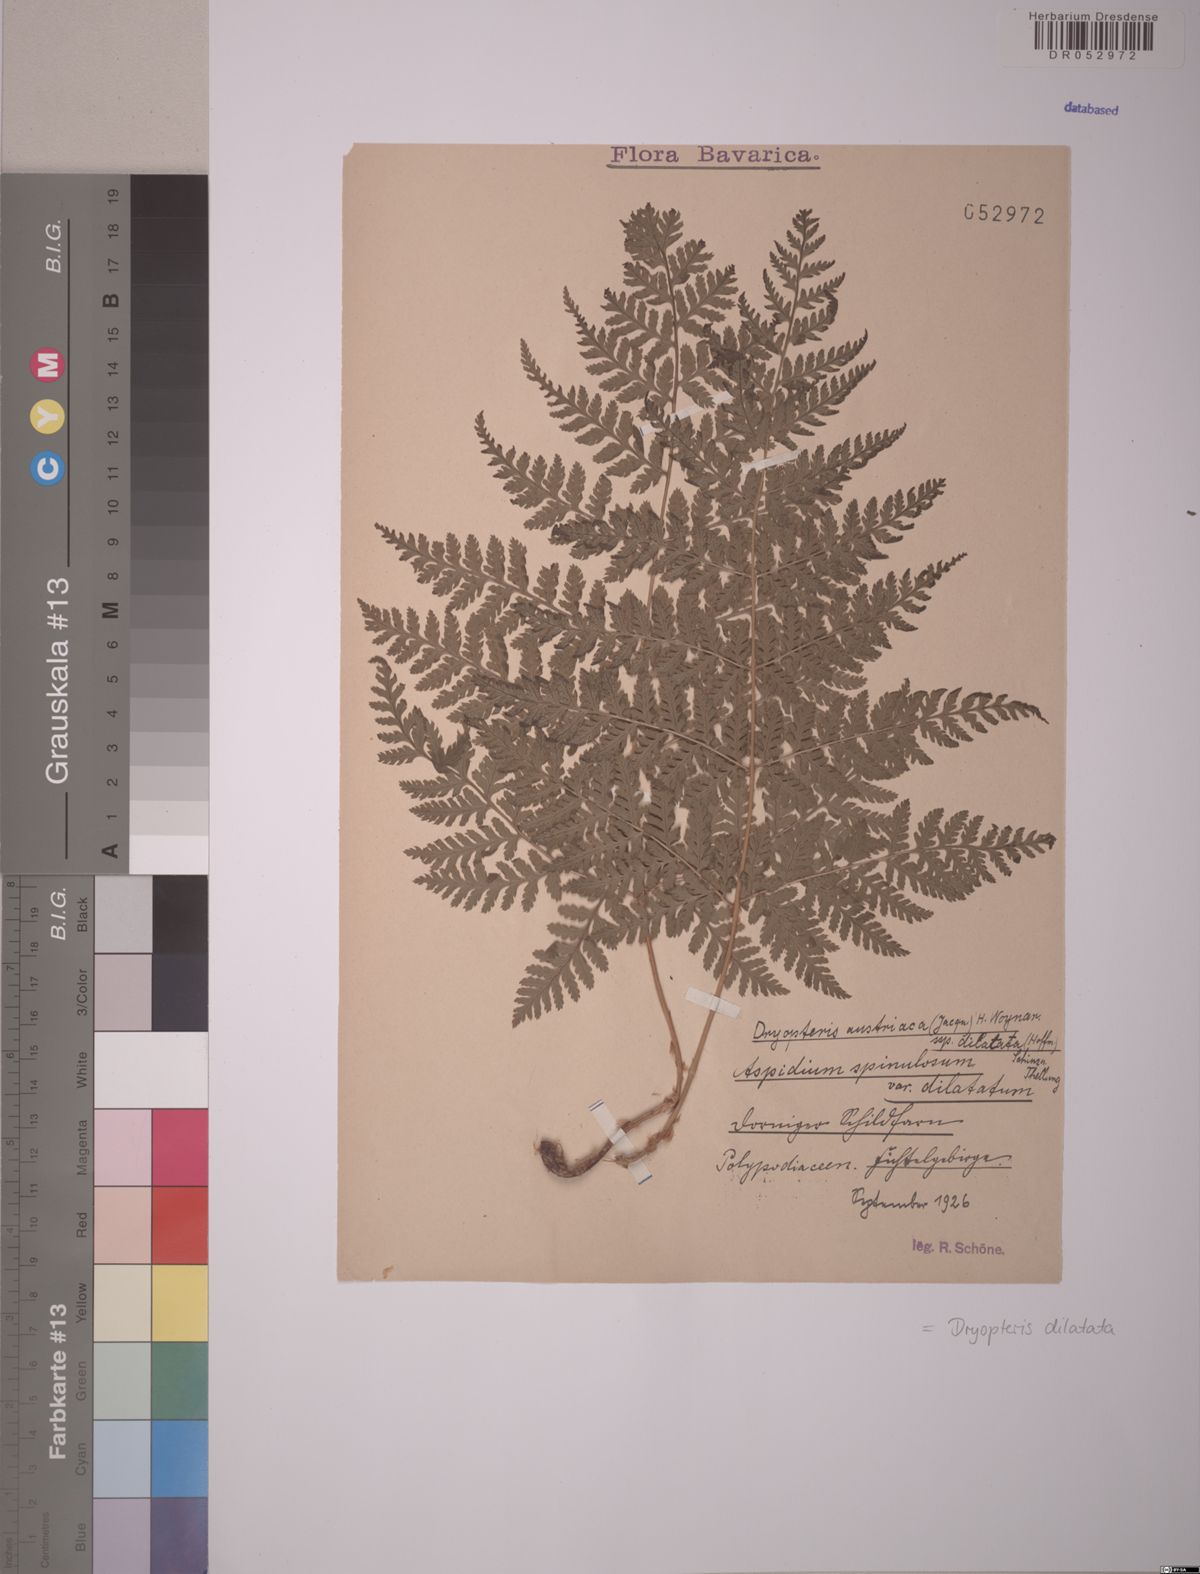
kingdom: Plantae
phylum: Tracheophyta
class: Polypodiopsida
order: Polypodiales
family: Dryopteridaceae
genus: Dryopteris
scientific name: Dryopteris dilatata
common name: Broad buckler-fern
